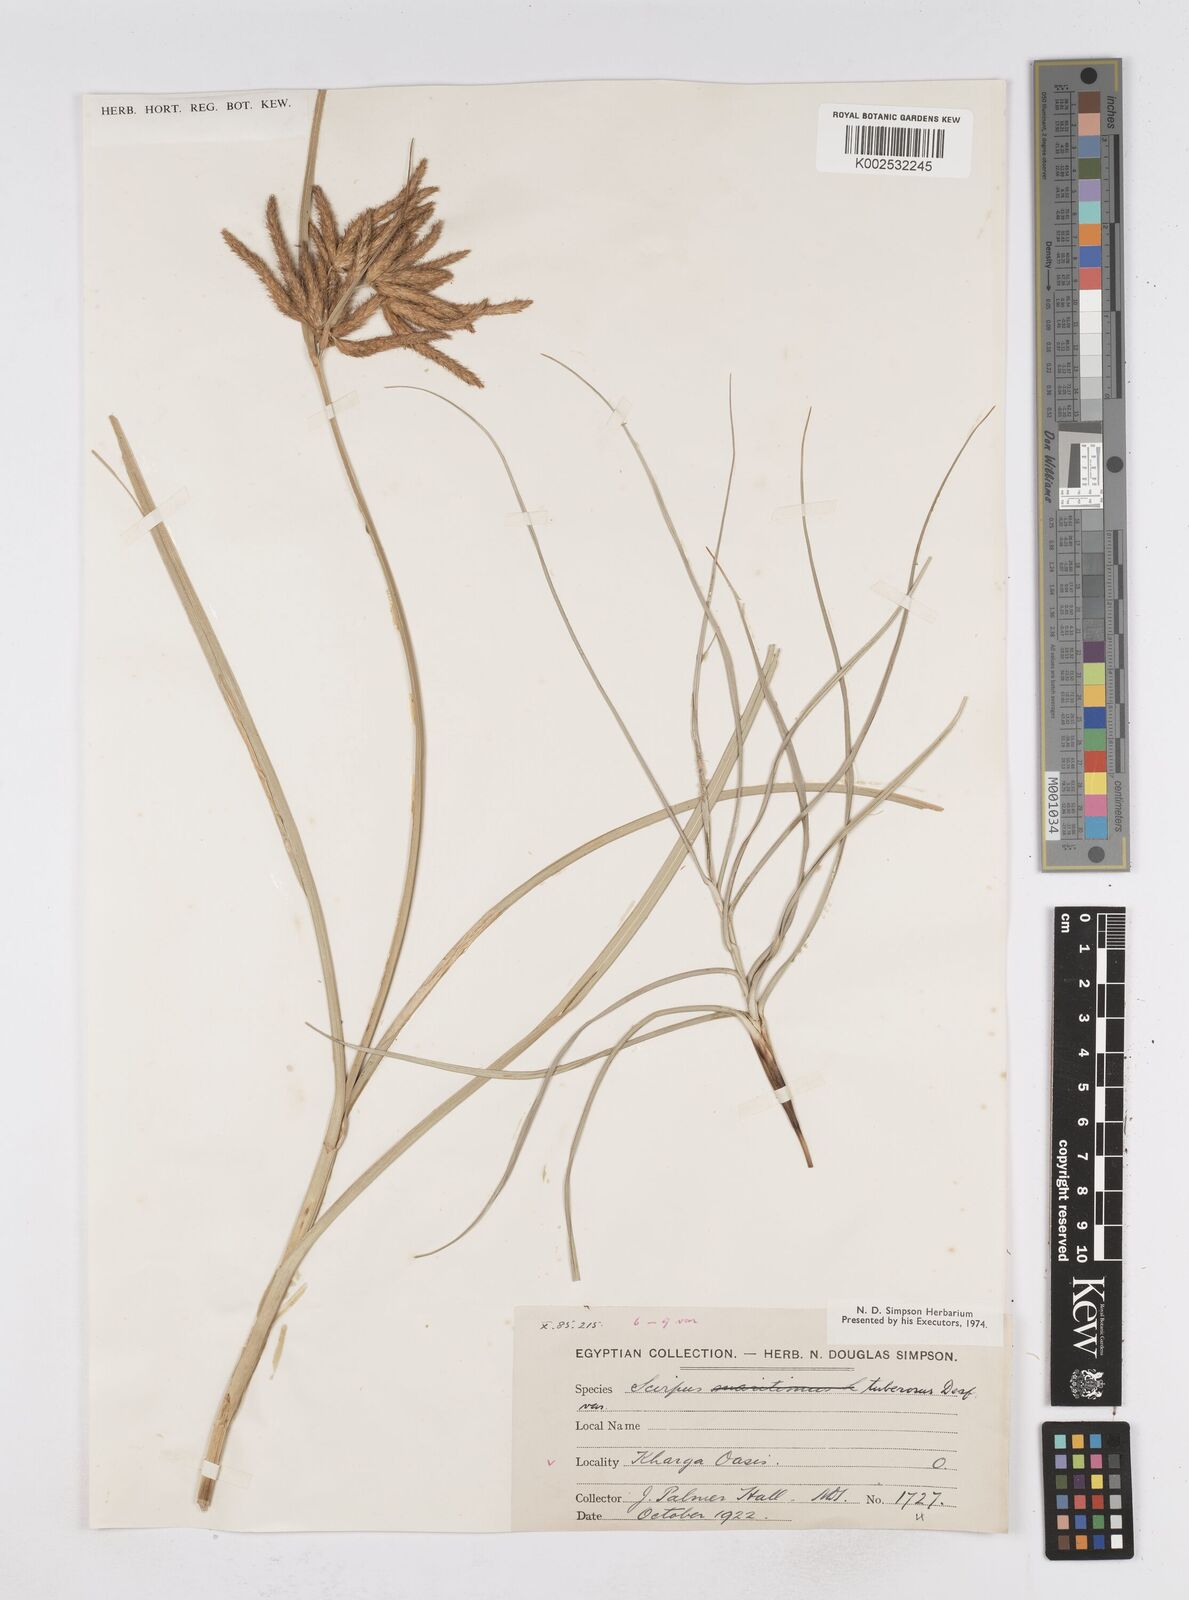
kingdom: Plantae
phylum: Tracheophyta
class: Liliopsida
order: Poales
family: Cyperaceae
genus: Bolboschoenus
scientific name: Bolboschoenus maritimus
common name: Sea club-rush
